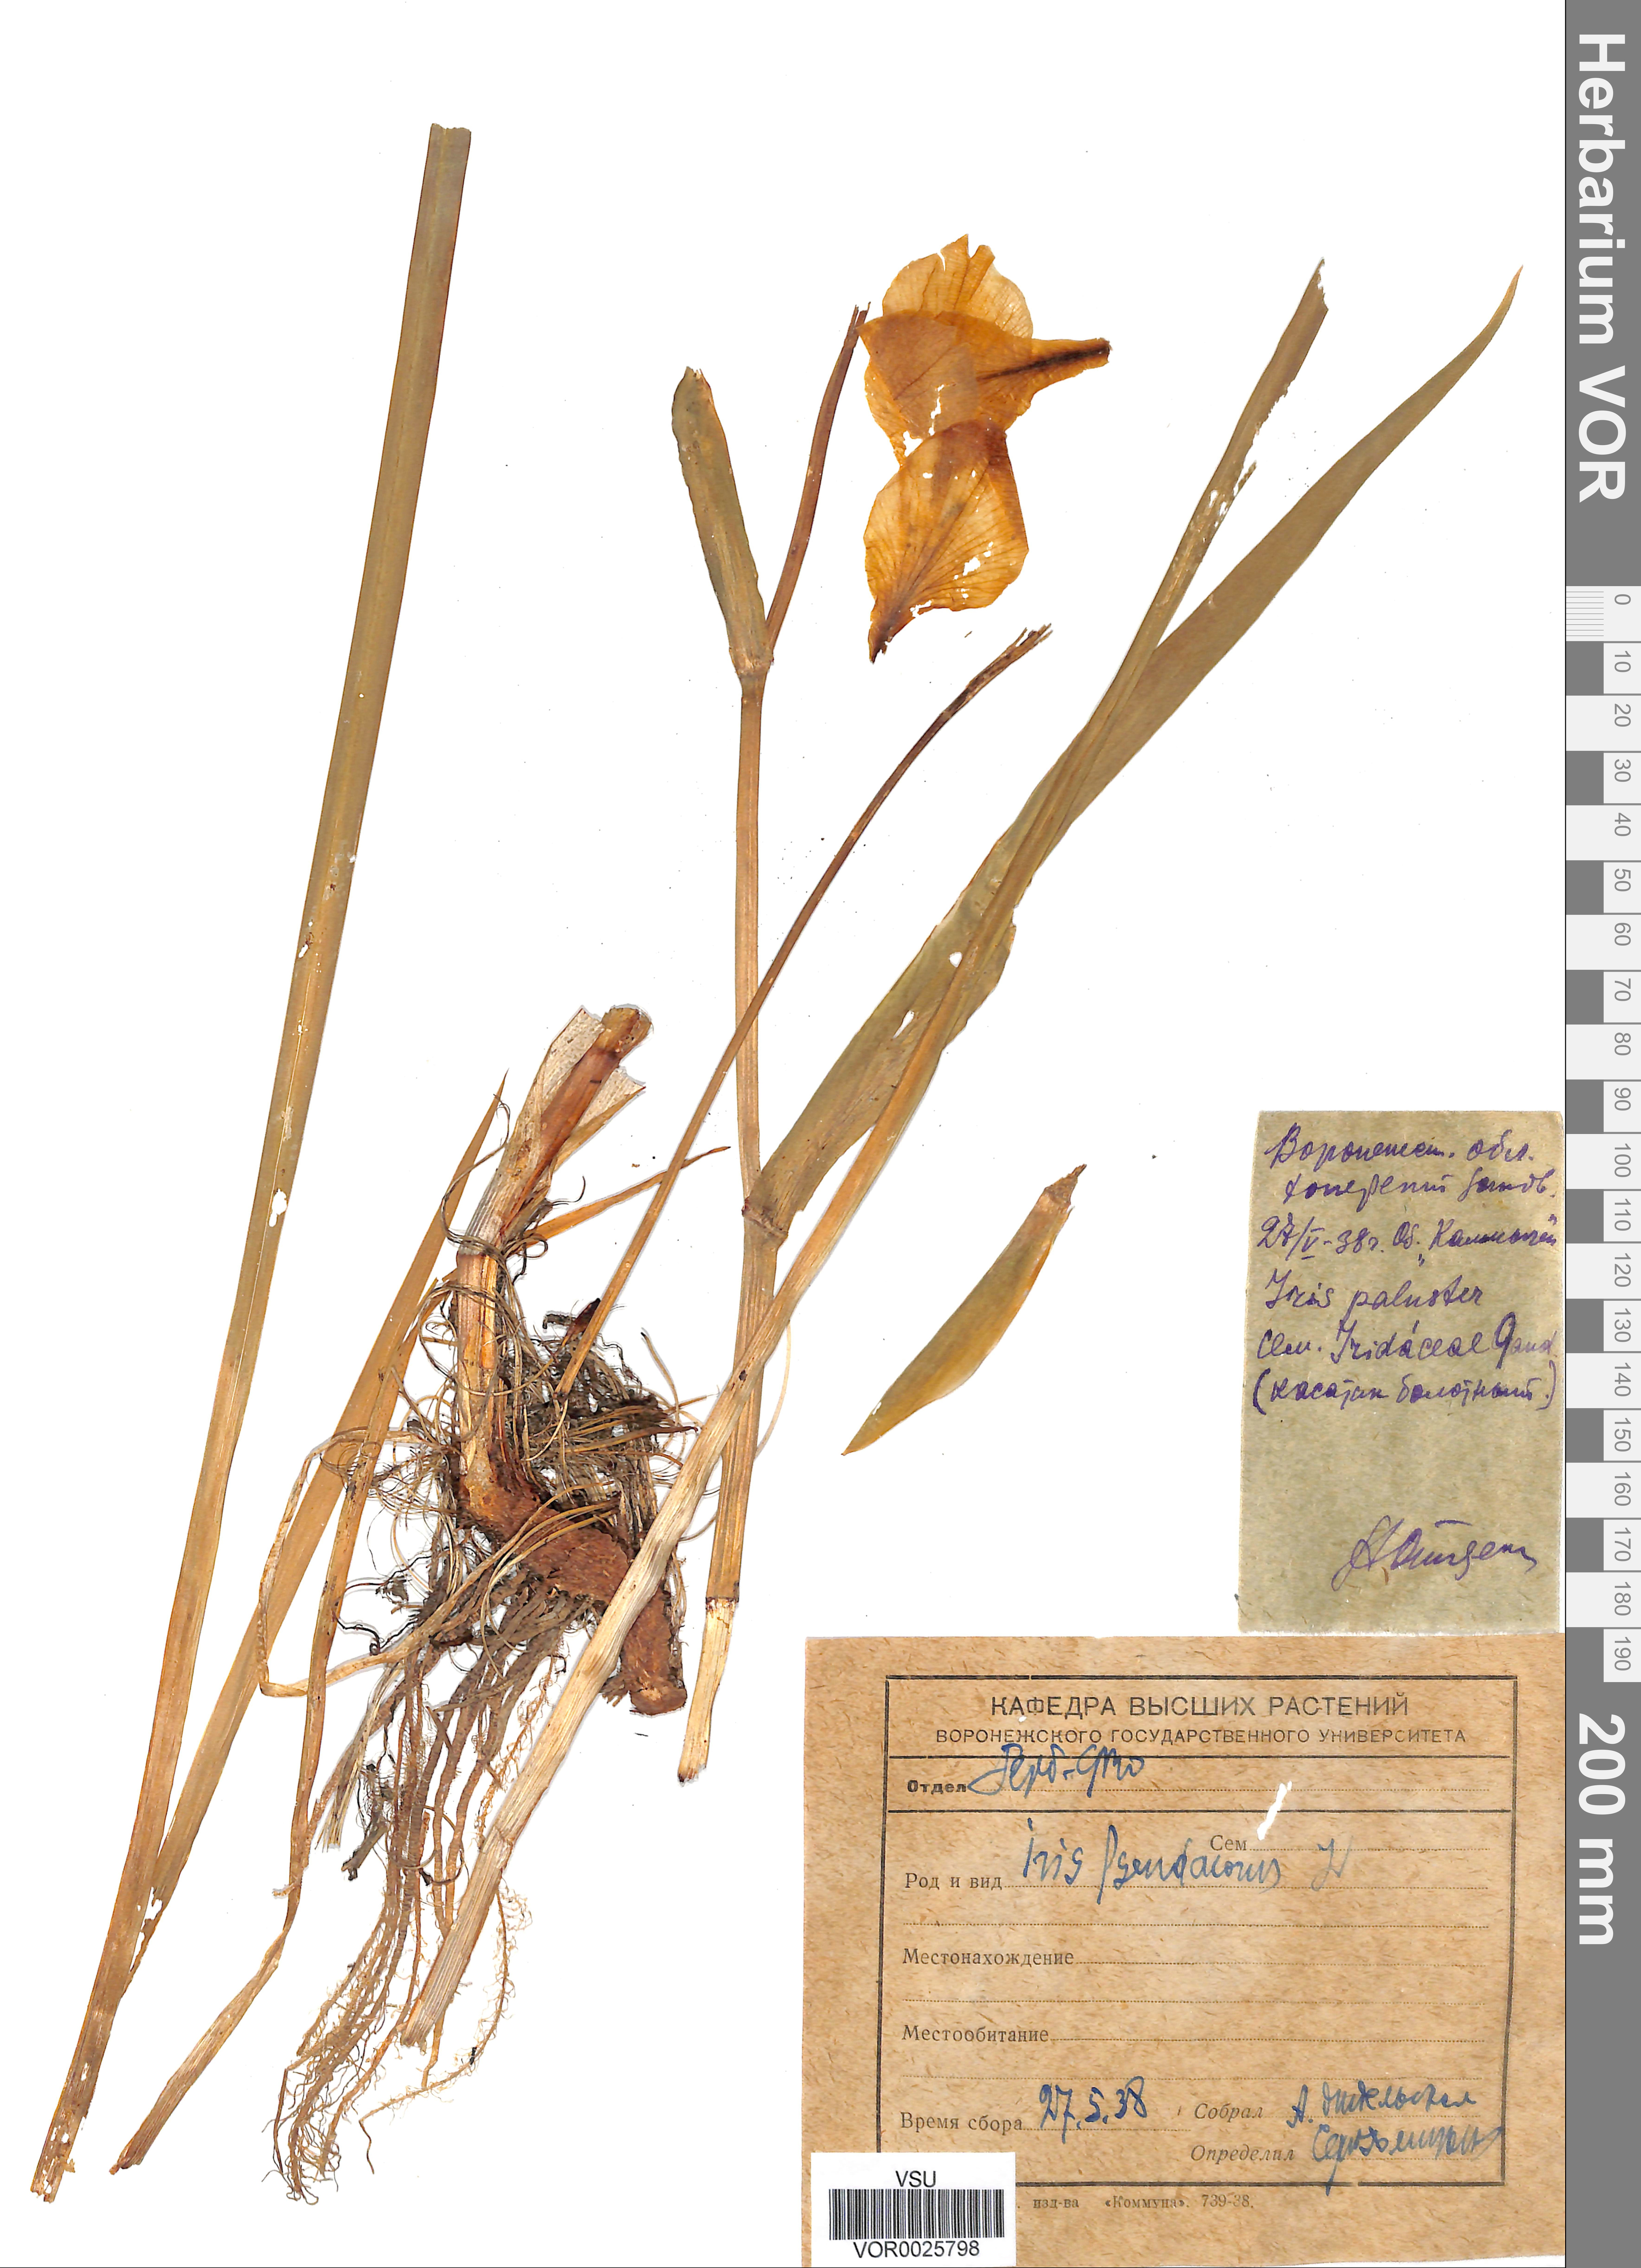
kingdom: Plantae
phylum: Tracheophyta
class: Liliopsida
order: Asparagales
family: Iridaceae
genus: Iris
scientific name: Iris pseudacorus
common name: Yellow flag
